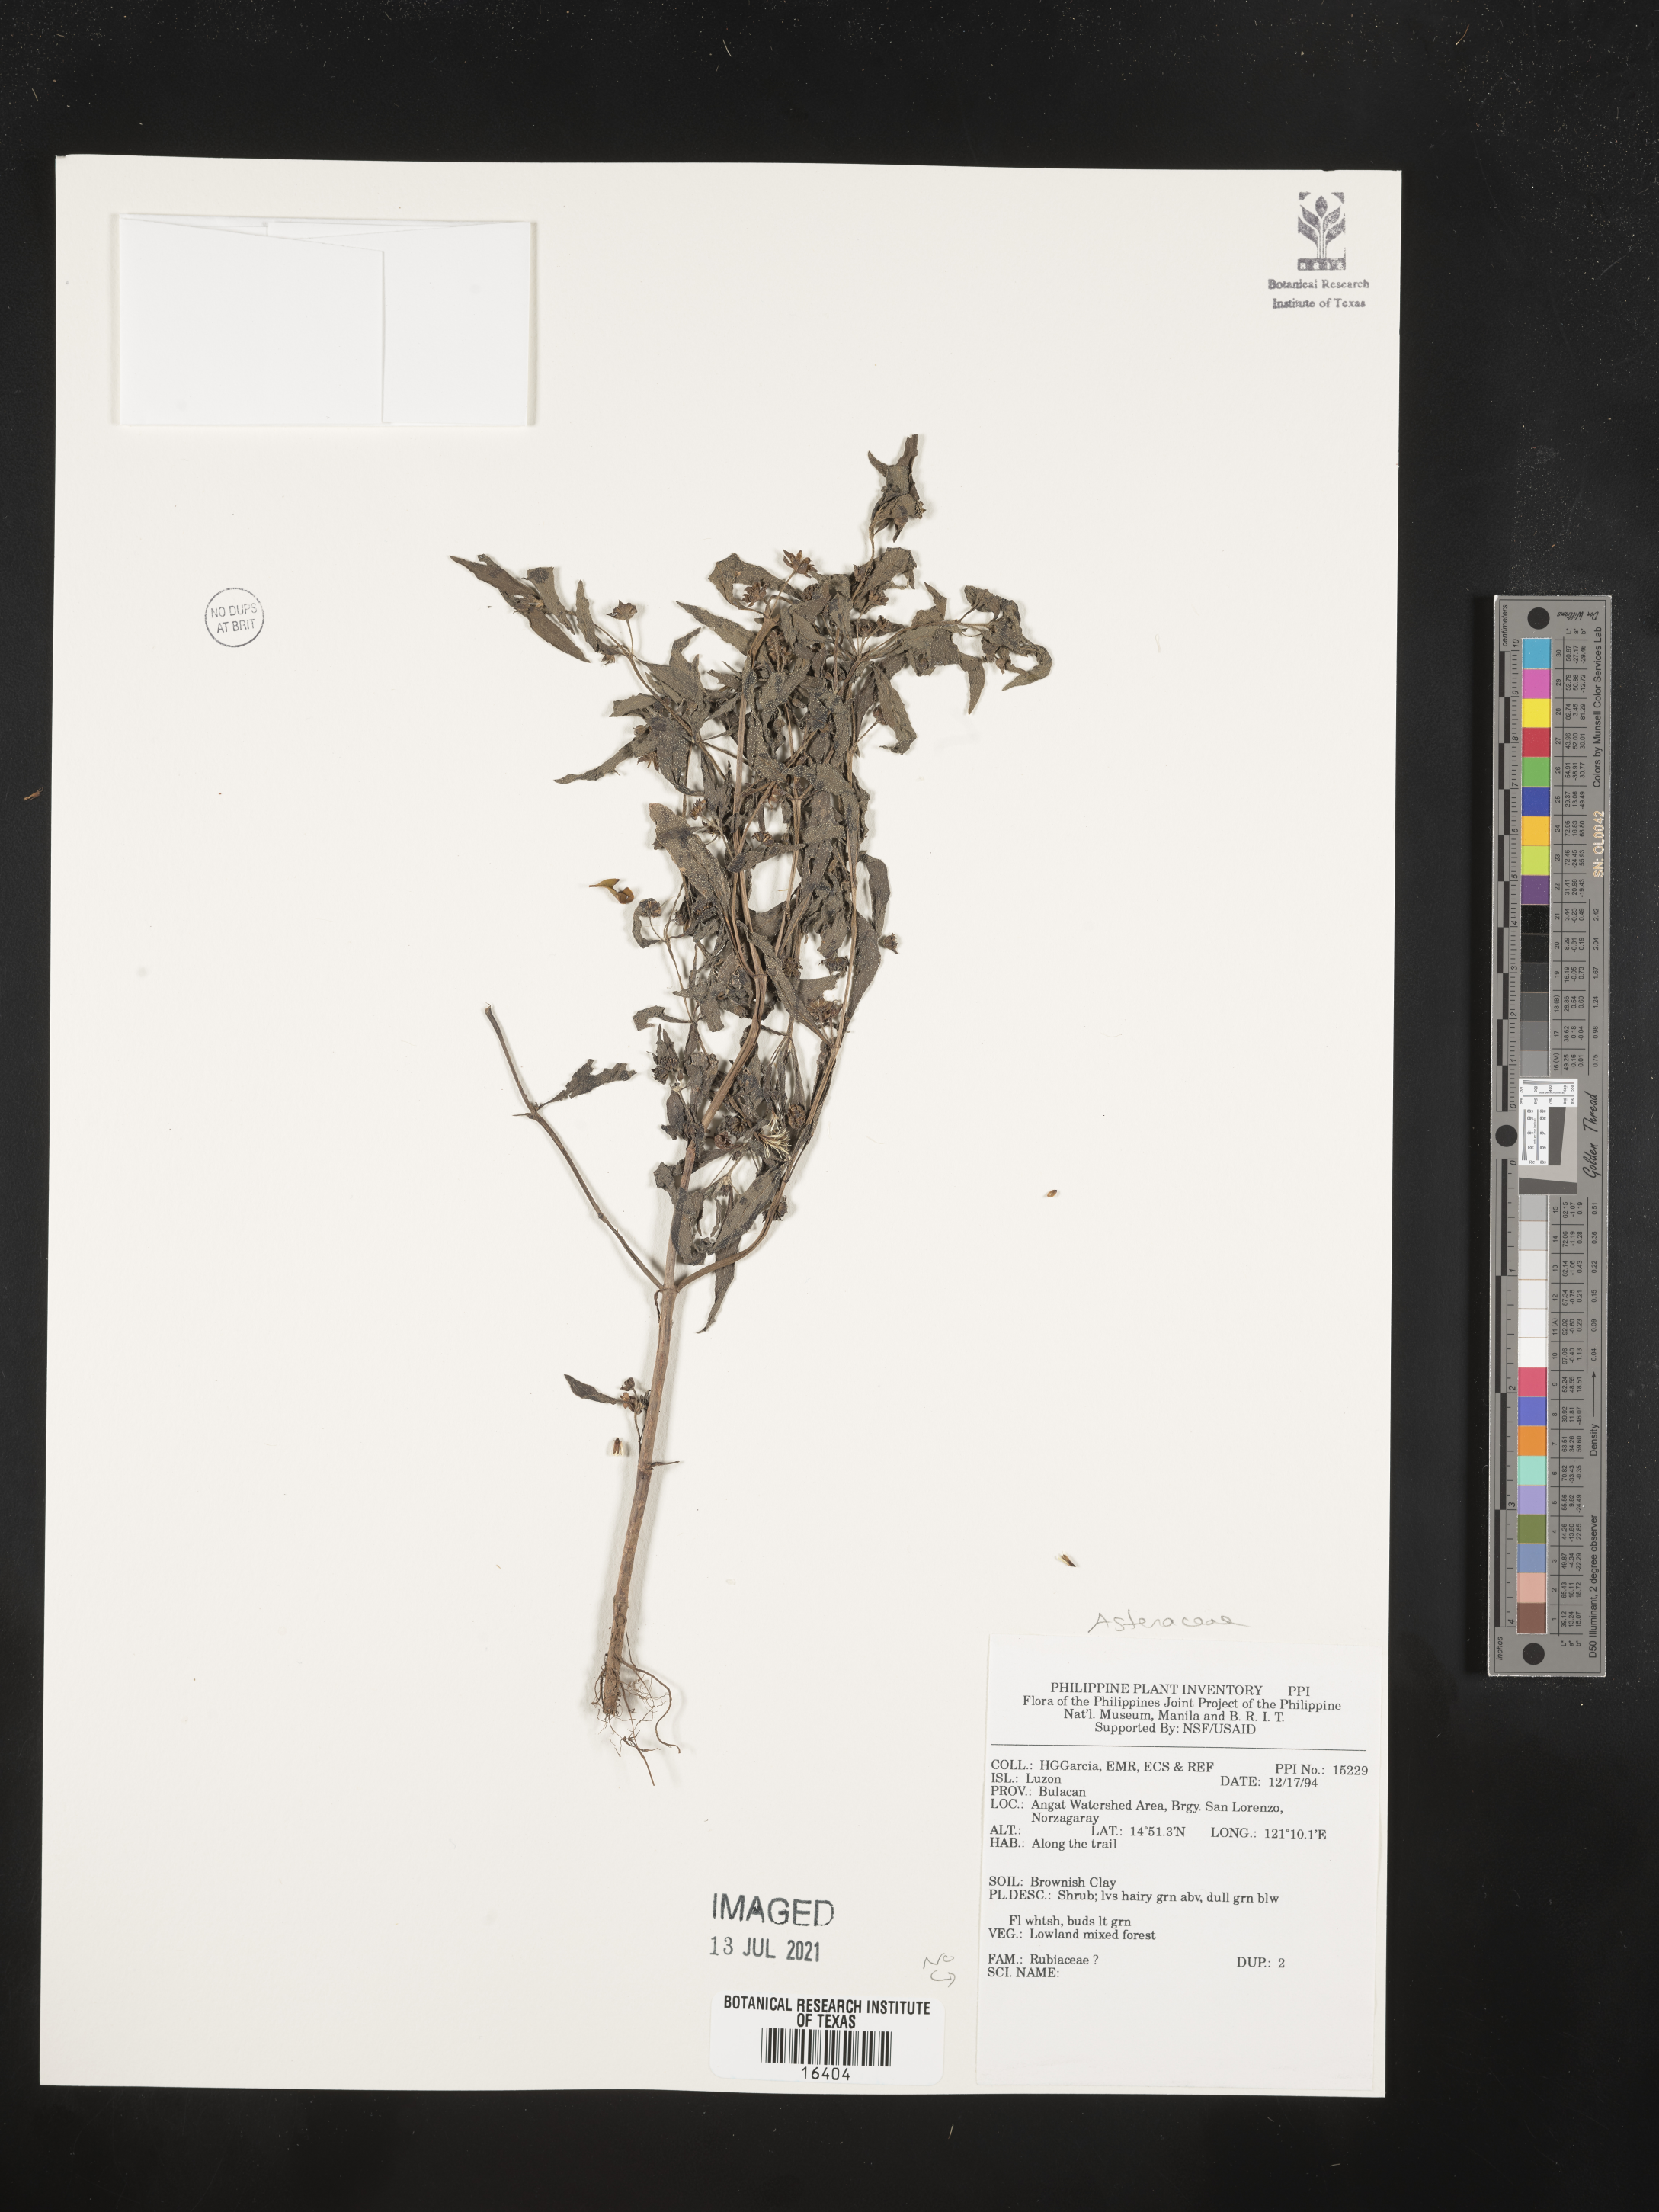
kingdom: Plantae
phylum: Tracheophyta
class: Magnoliopsida
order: Asterales
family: Asteraceae
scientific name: Asteraceae
